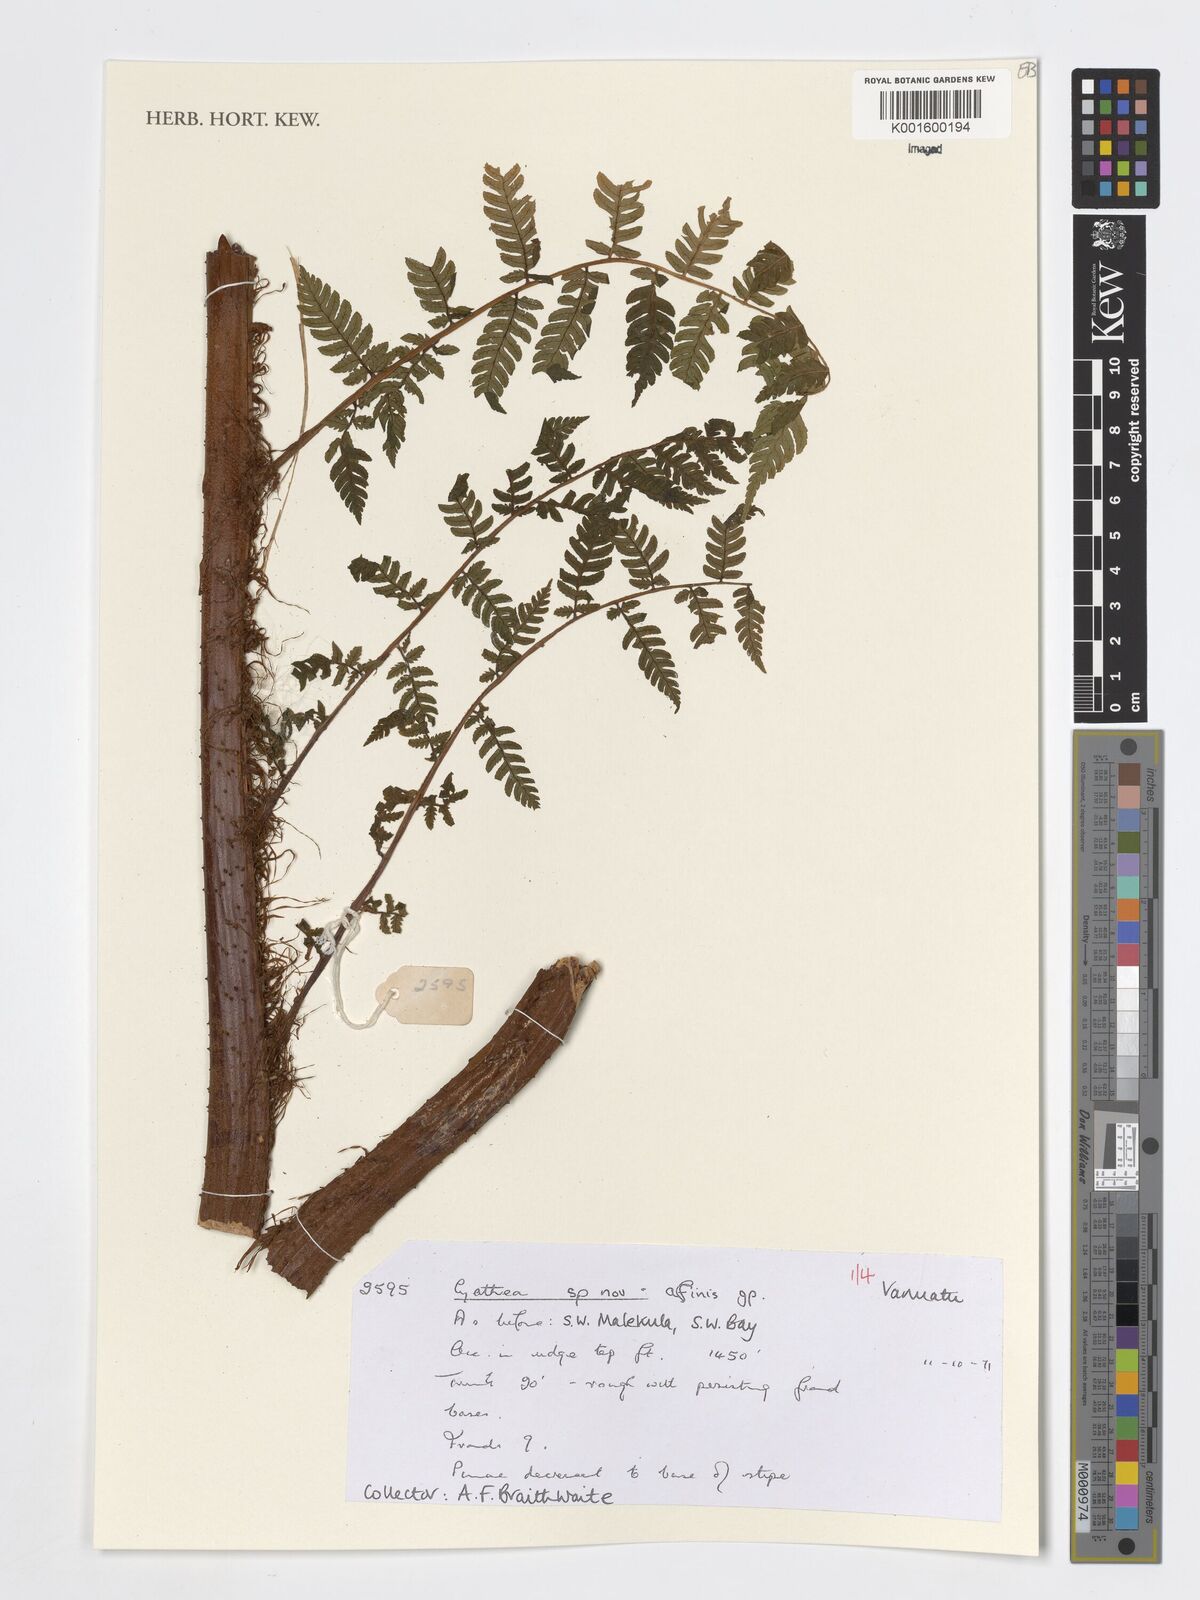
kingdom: Plantae
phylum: Tracheophyta
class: Polypodiopsida
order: Cyatheales
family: Cyatheaceae
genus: Cyathea
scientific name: Cyathea
